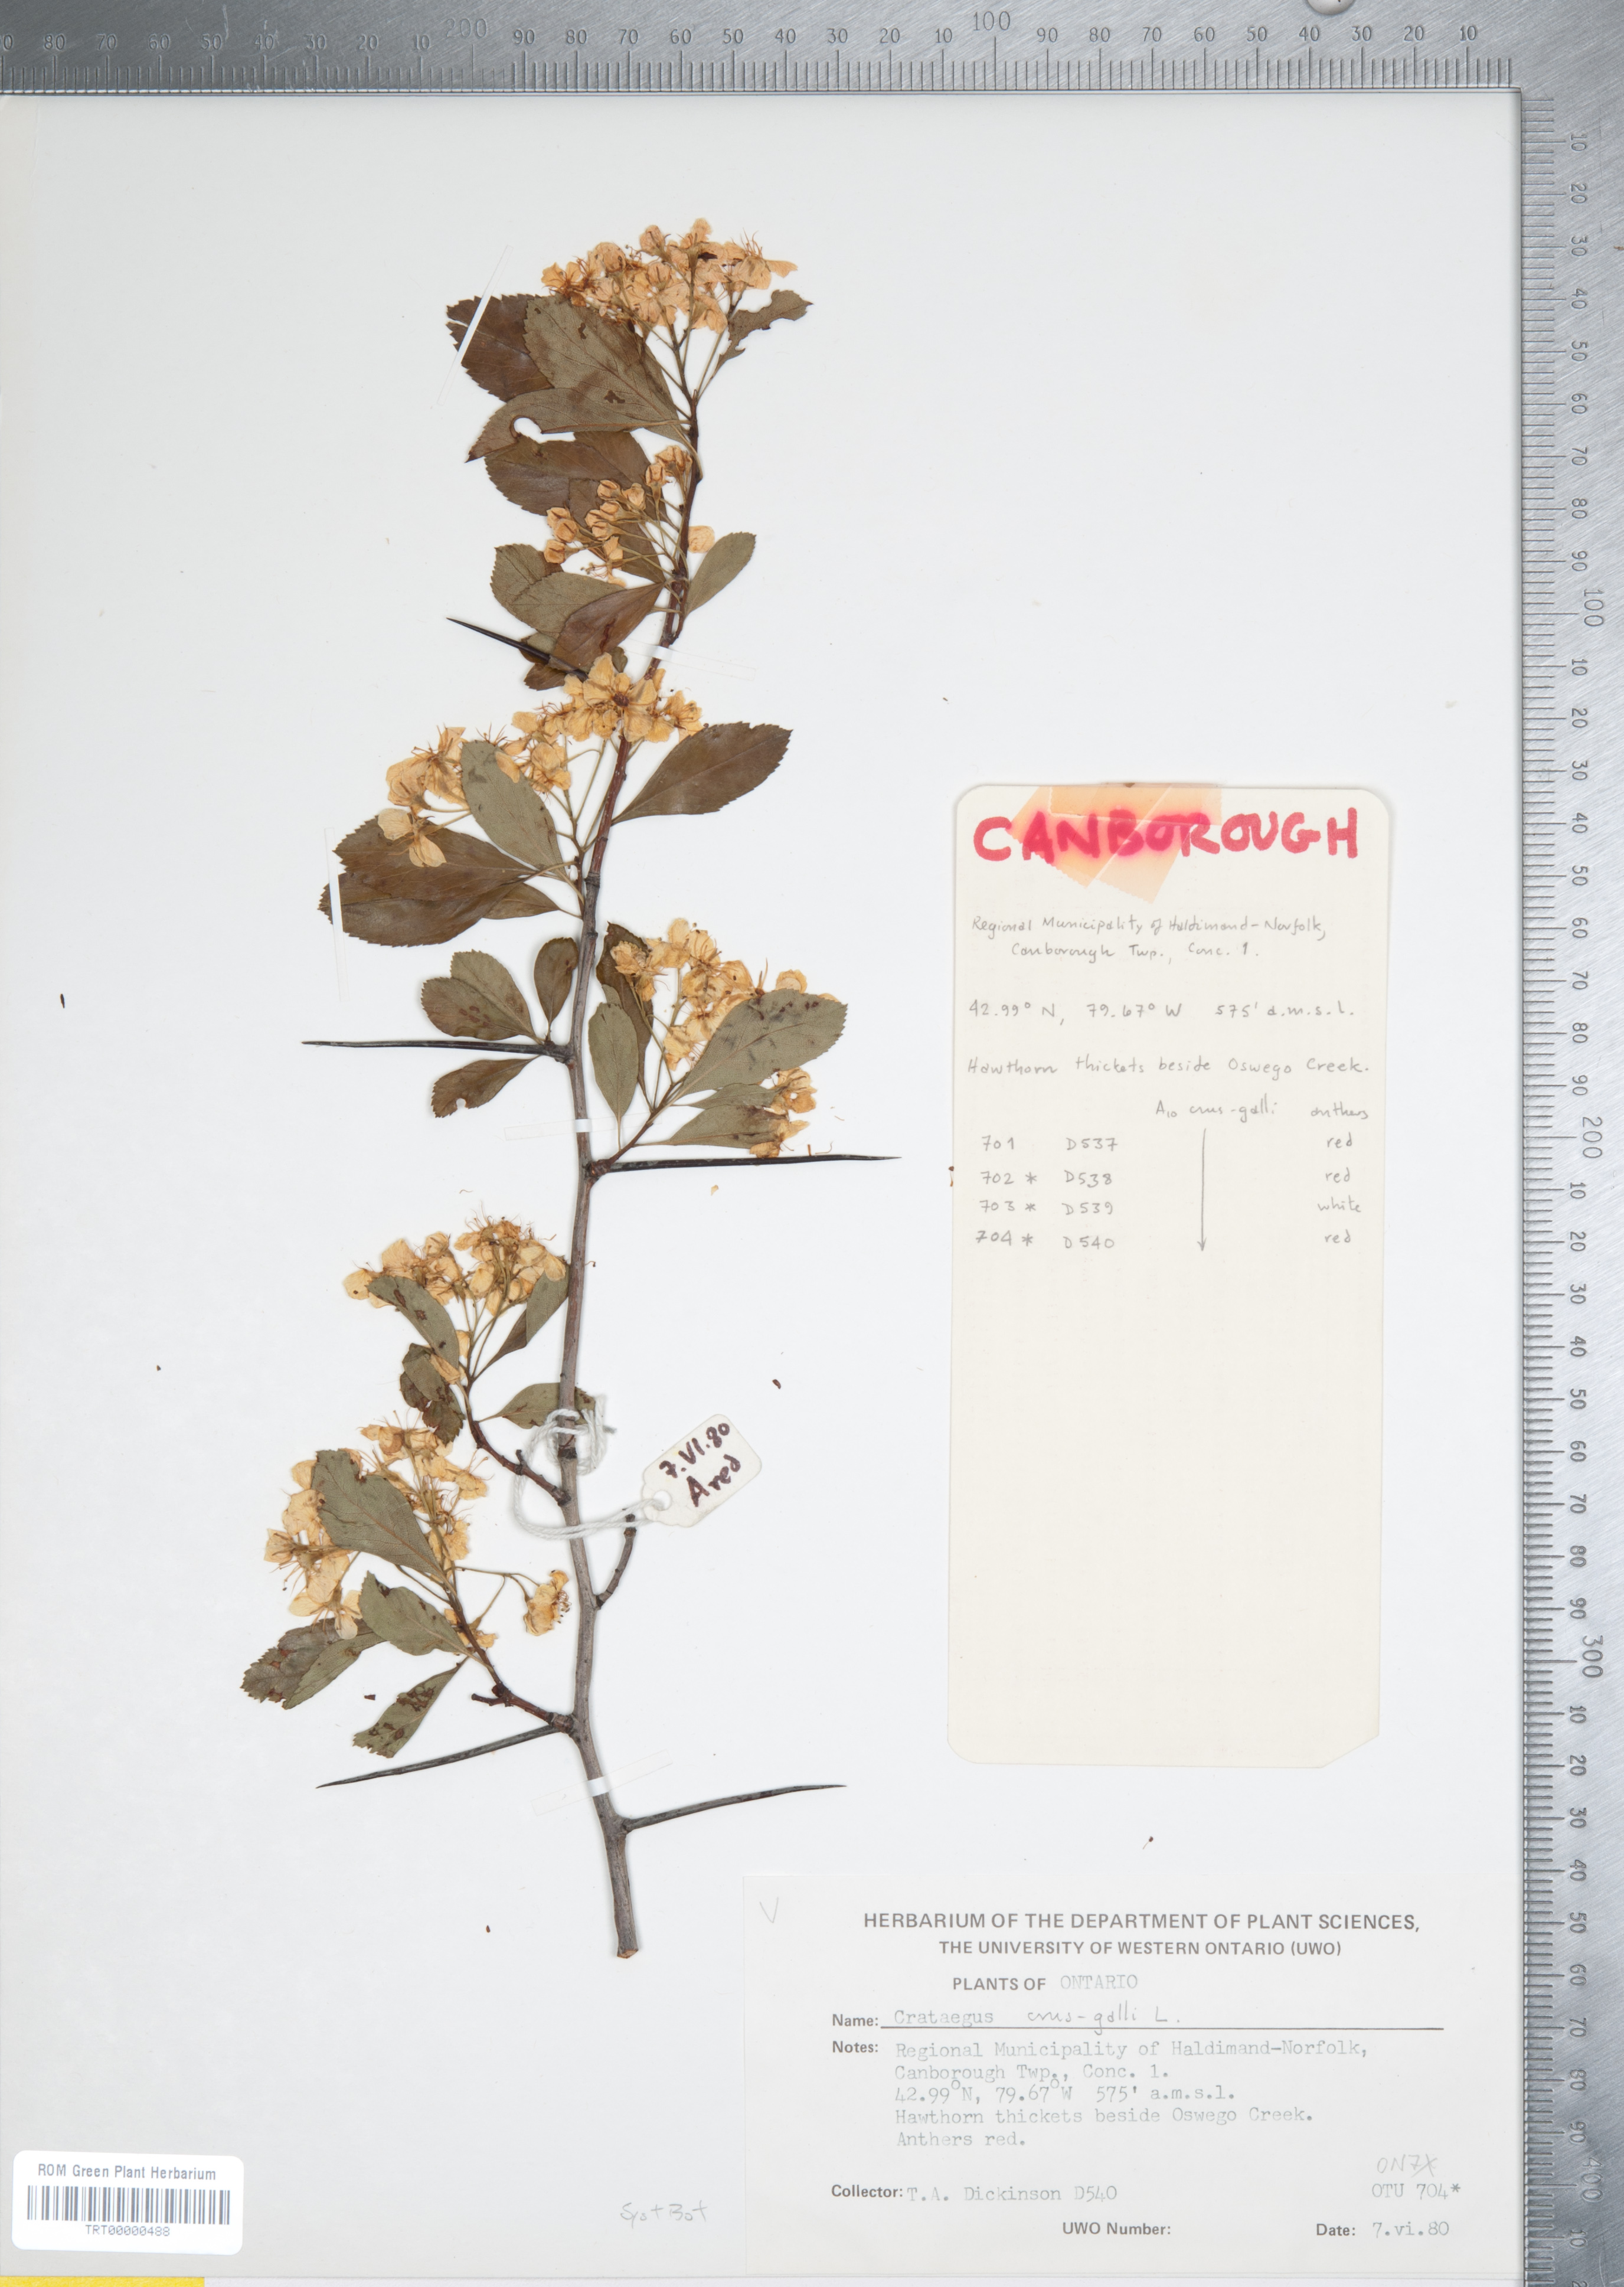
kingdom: Plantae
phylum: Tracheophyta
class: Magnoliopsida
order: Rosales
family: Rosaceae
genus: Crataegus
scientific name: Crataegus crus-galli
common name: Cockspurthorn
